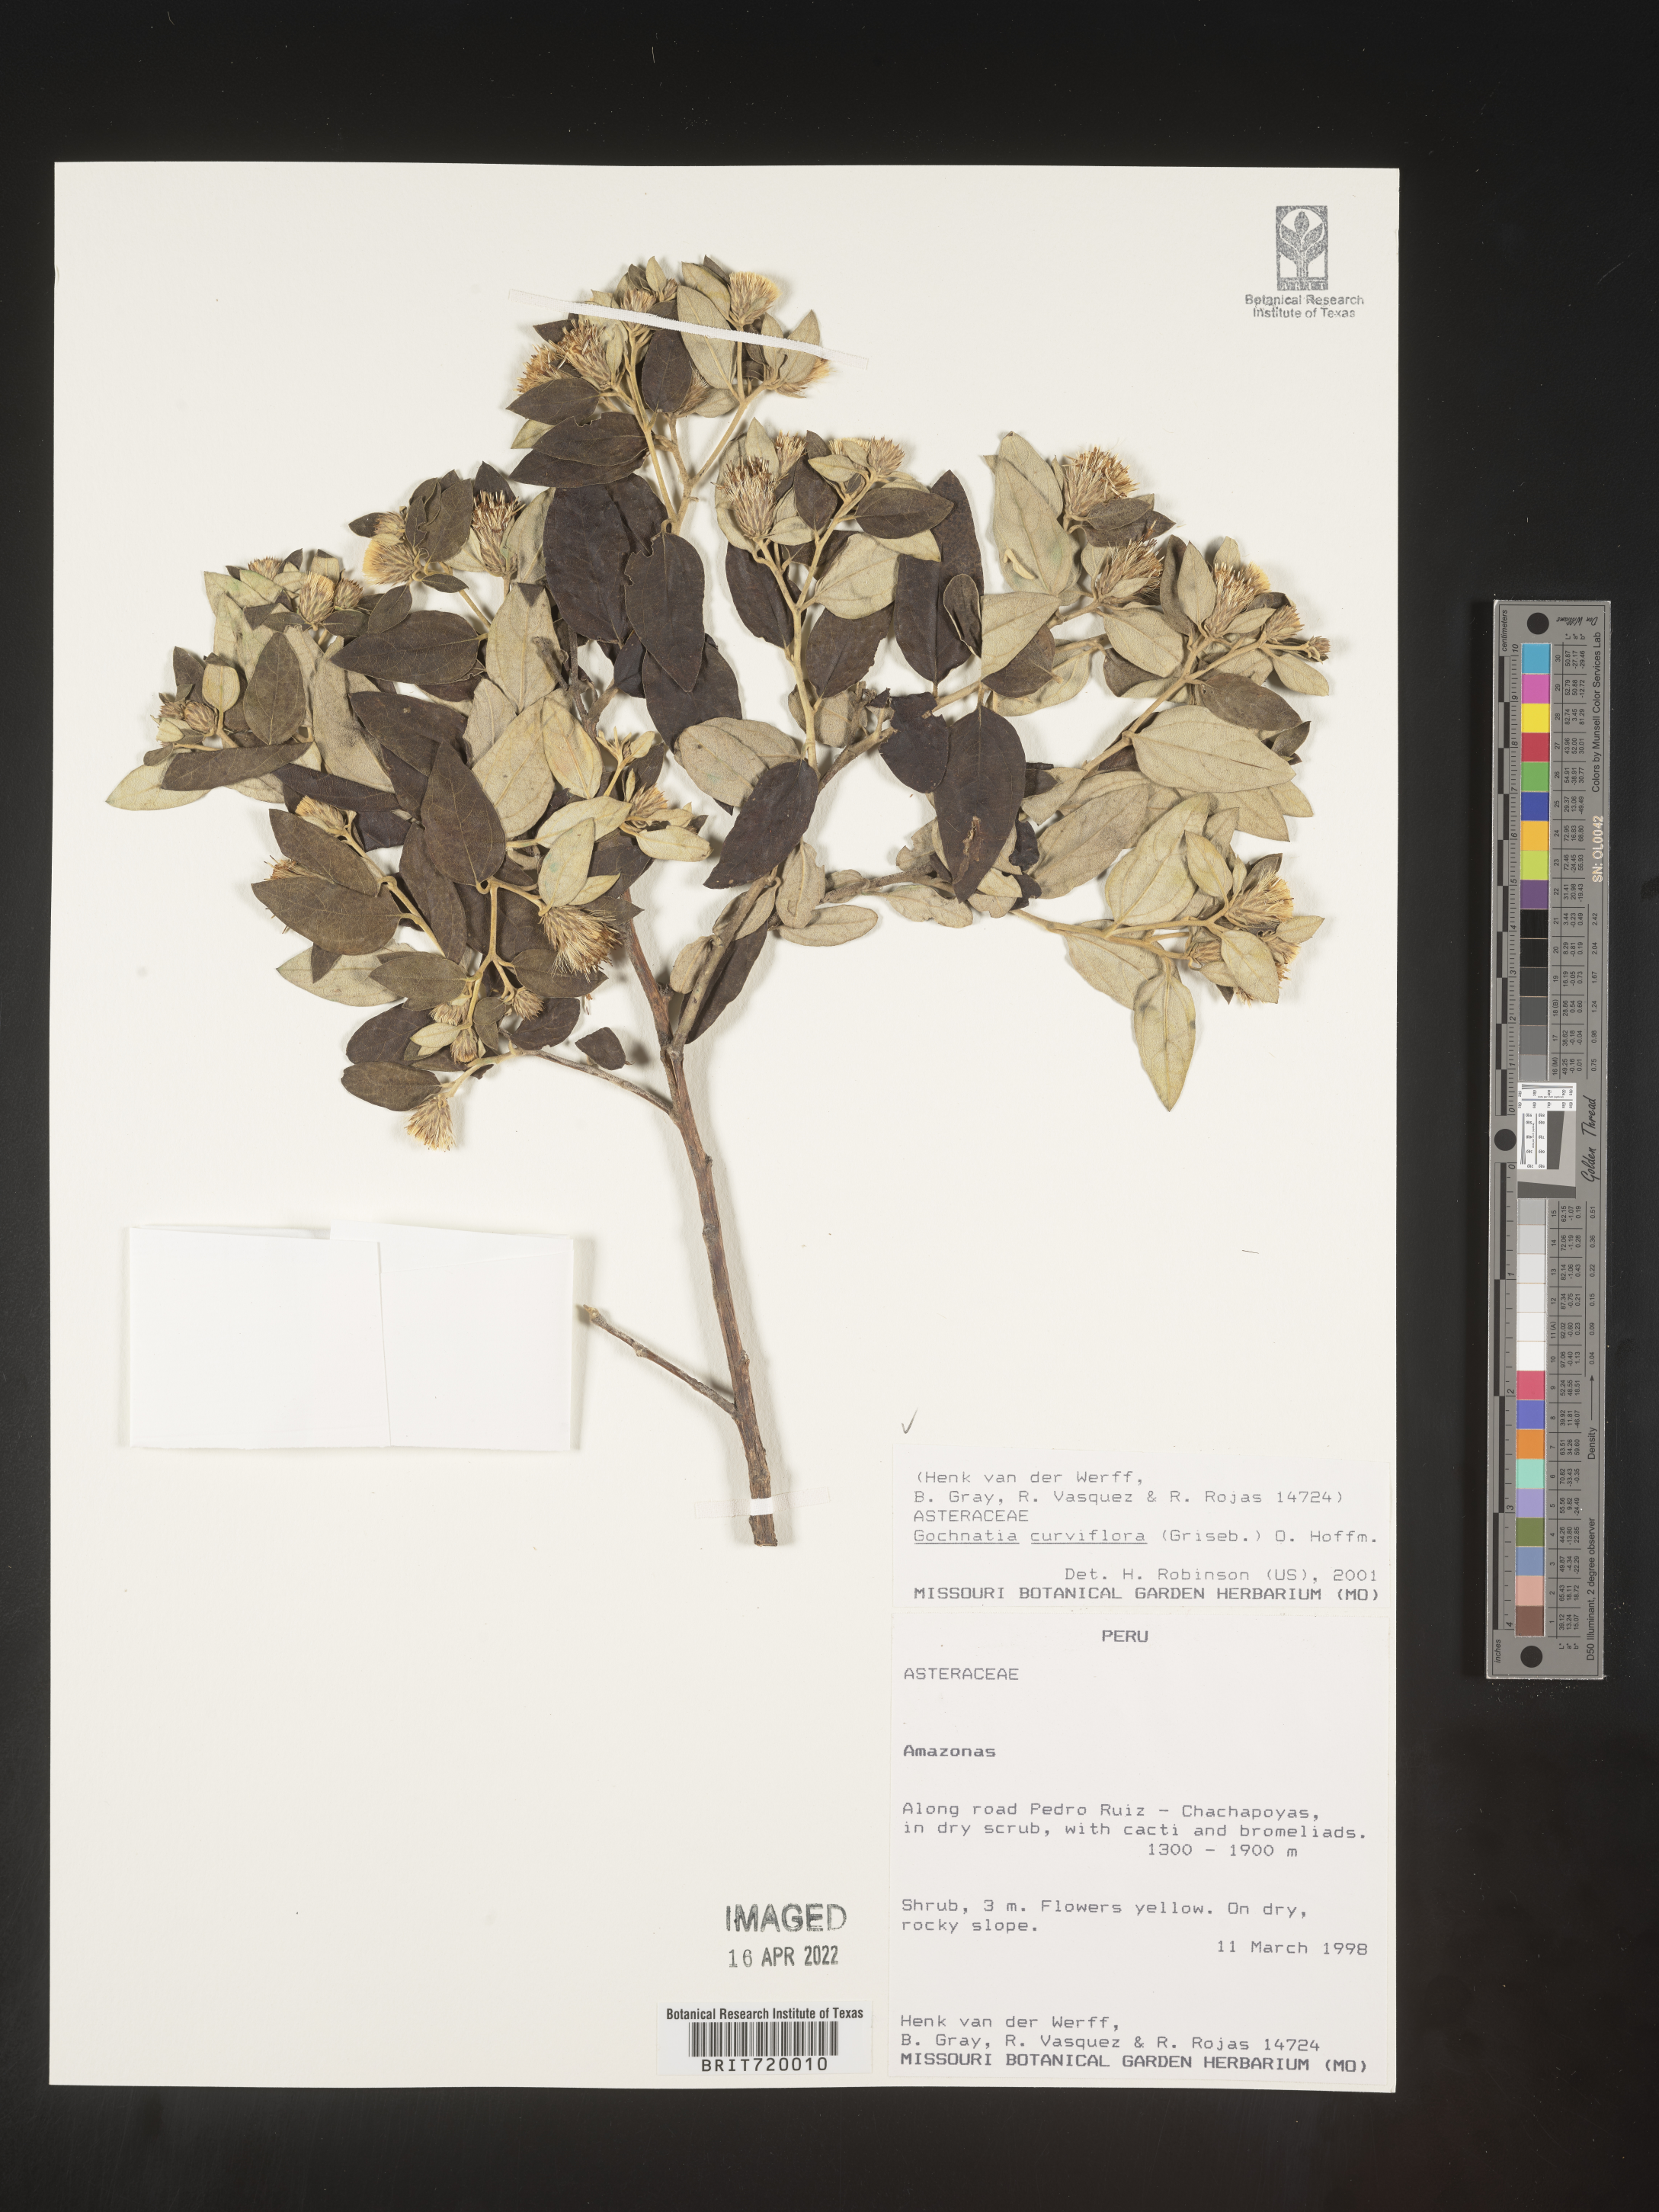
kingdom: Plantae
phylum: Tracheophyta
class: Magnoliopsida
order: Asterales
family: Asteraceae
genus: Gochnatia
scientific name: Gochnatia
